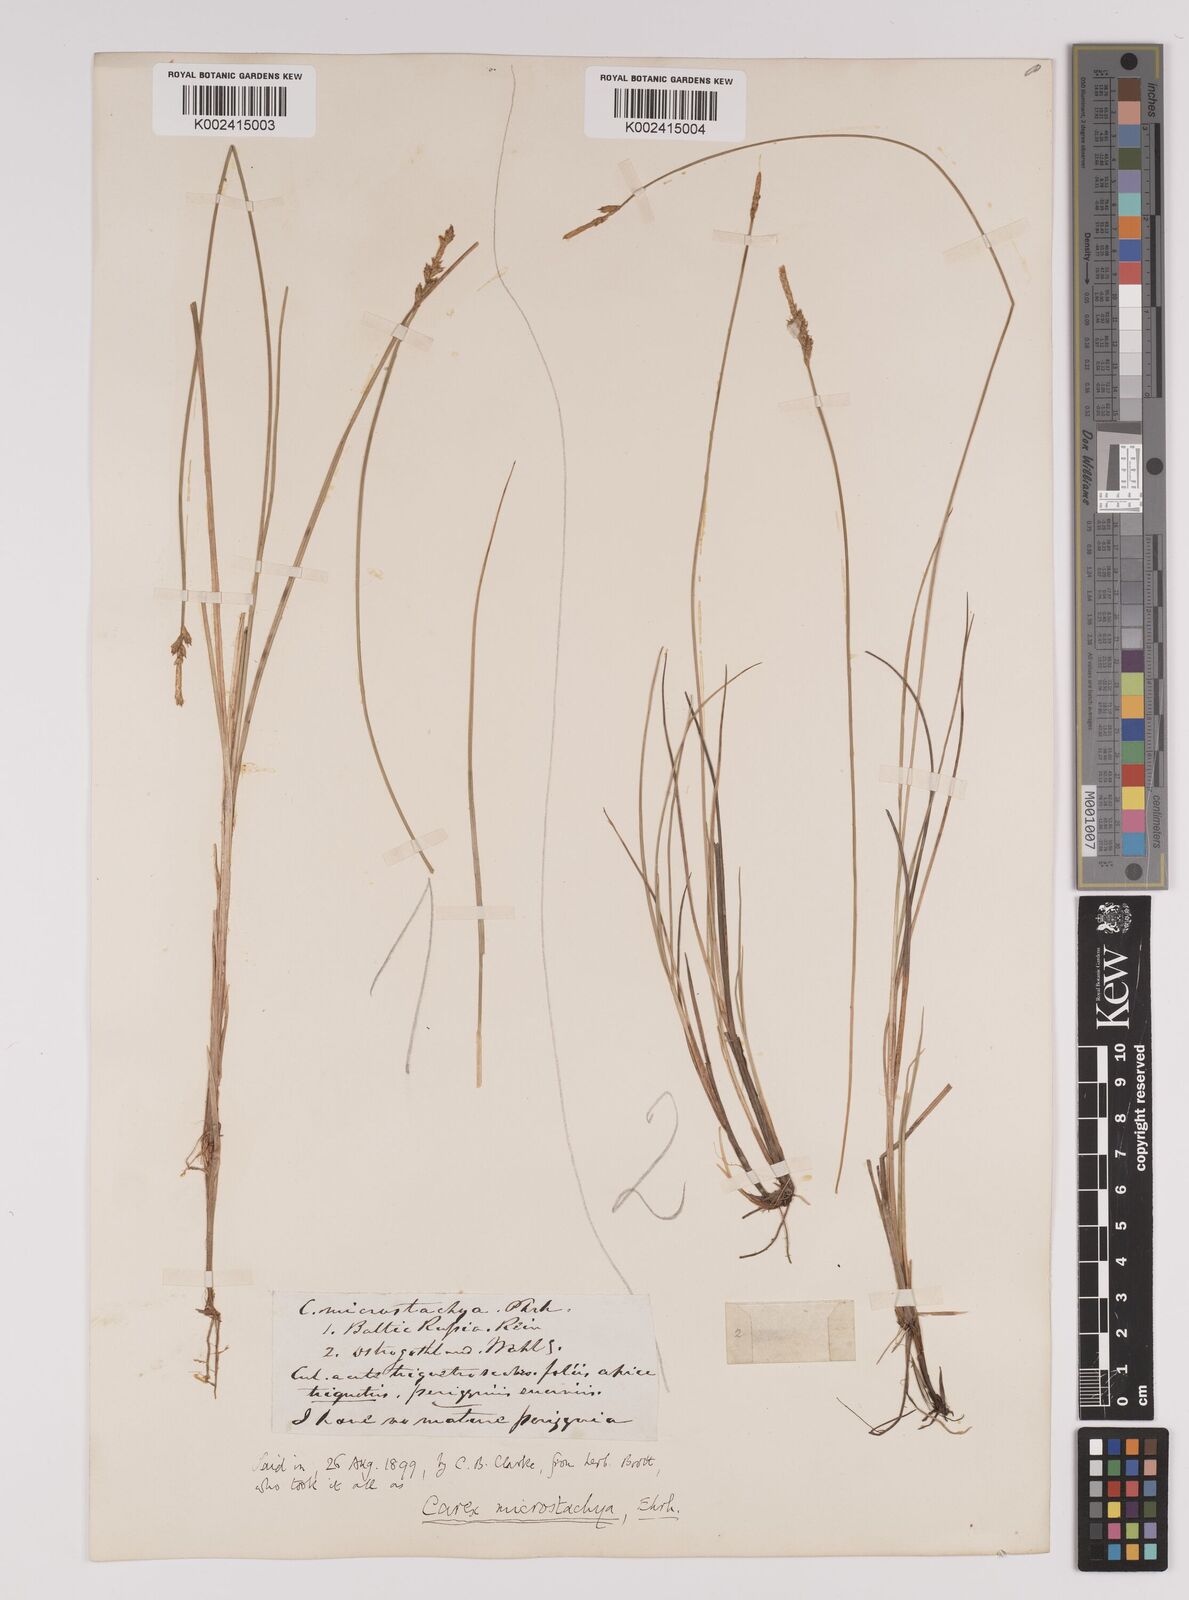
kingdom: Plantae
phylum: Tracheophyta
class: Liliopsida
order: Poales
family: Cyperaceae
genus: Carex
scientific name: Carex dioica
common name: Dioecious sedge
